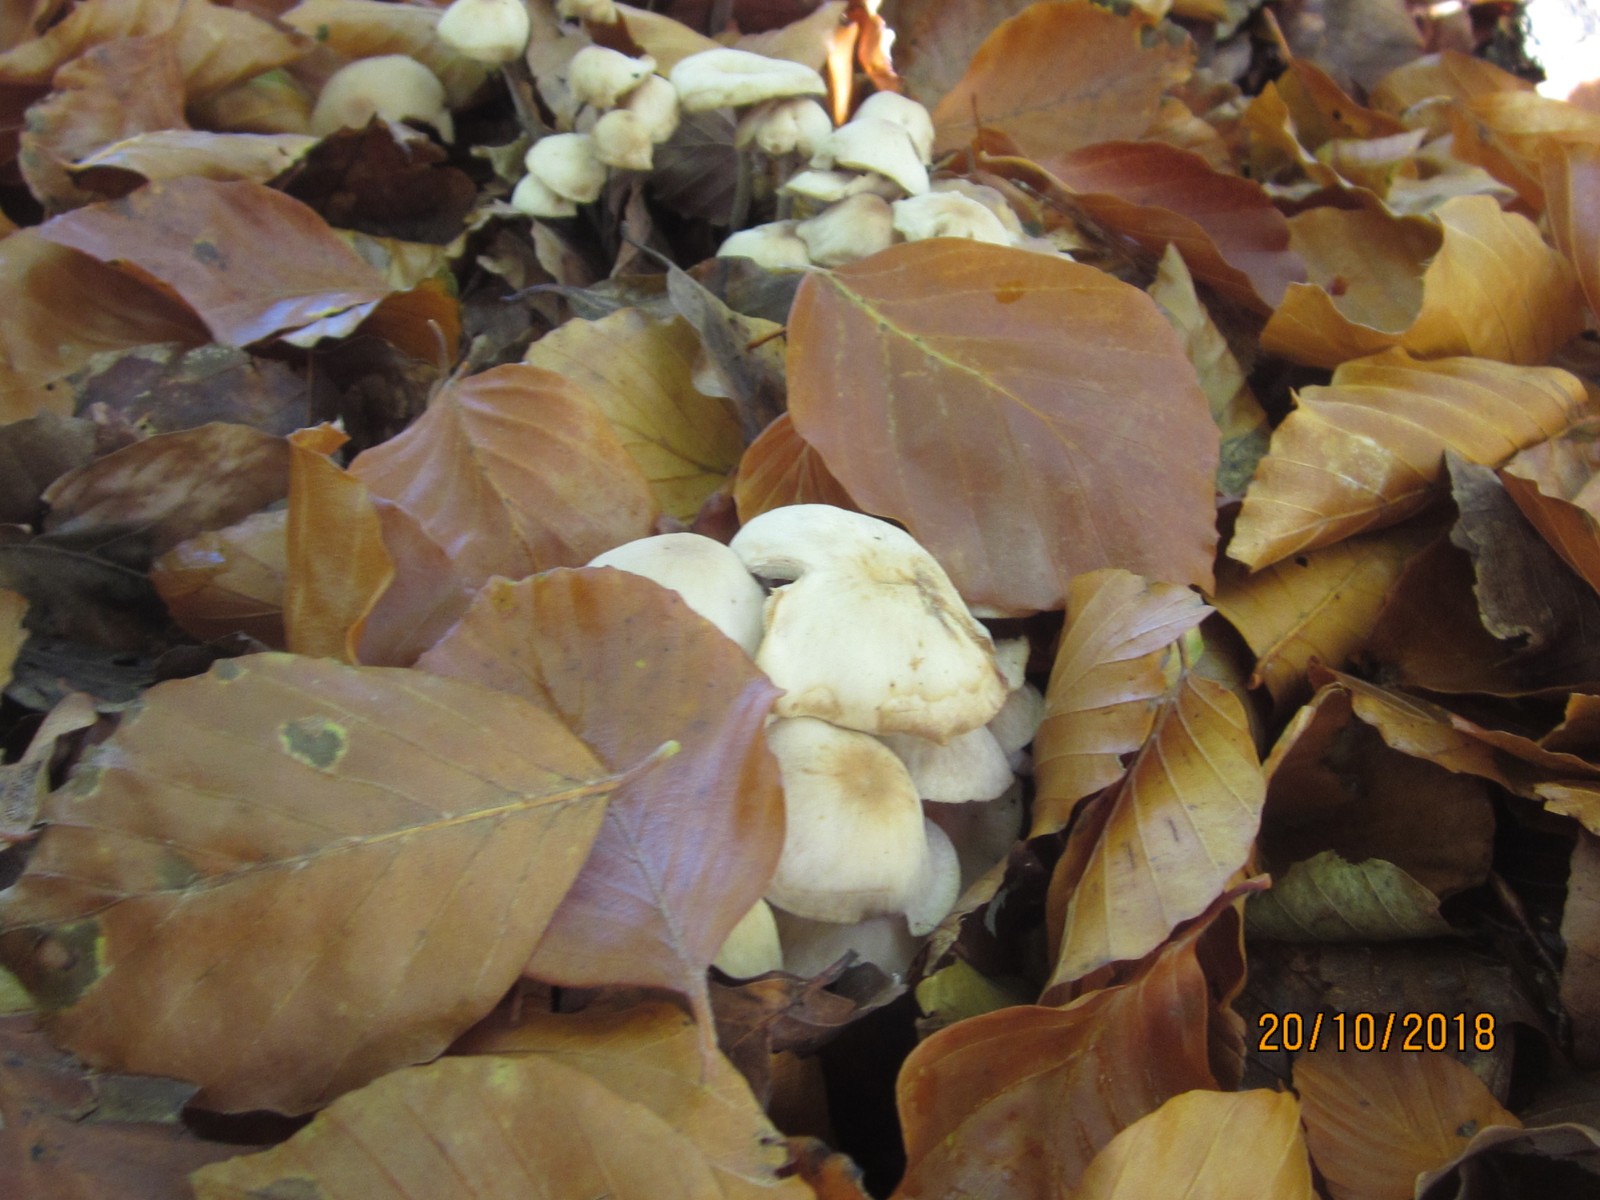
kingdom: Fungi
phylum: Basidiomycota
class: Agaricomycetes
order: Agaricales
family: Omphalotaceae
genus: Collybiopsis
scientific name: Collybiopsis confluens
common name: knippe-fladhat
